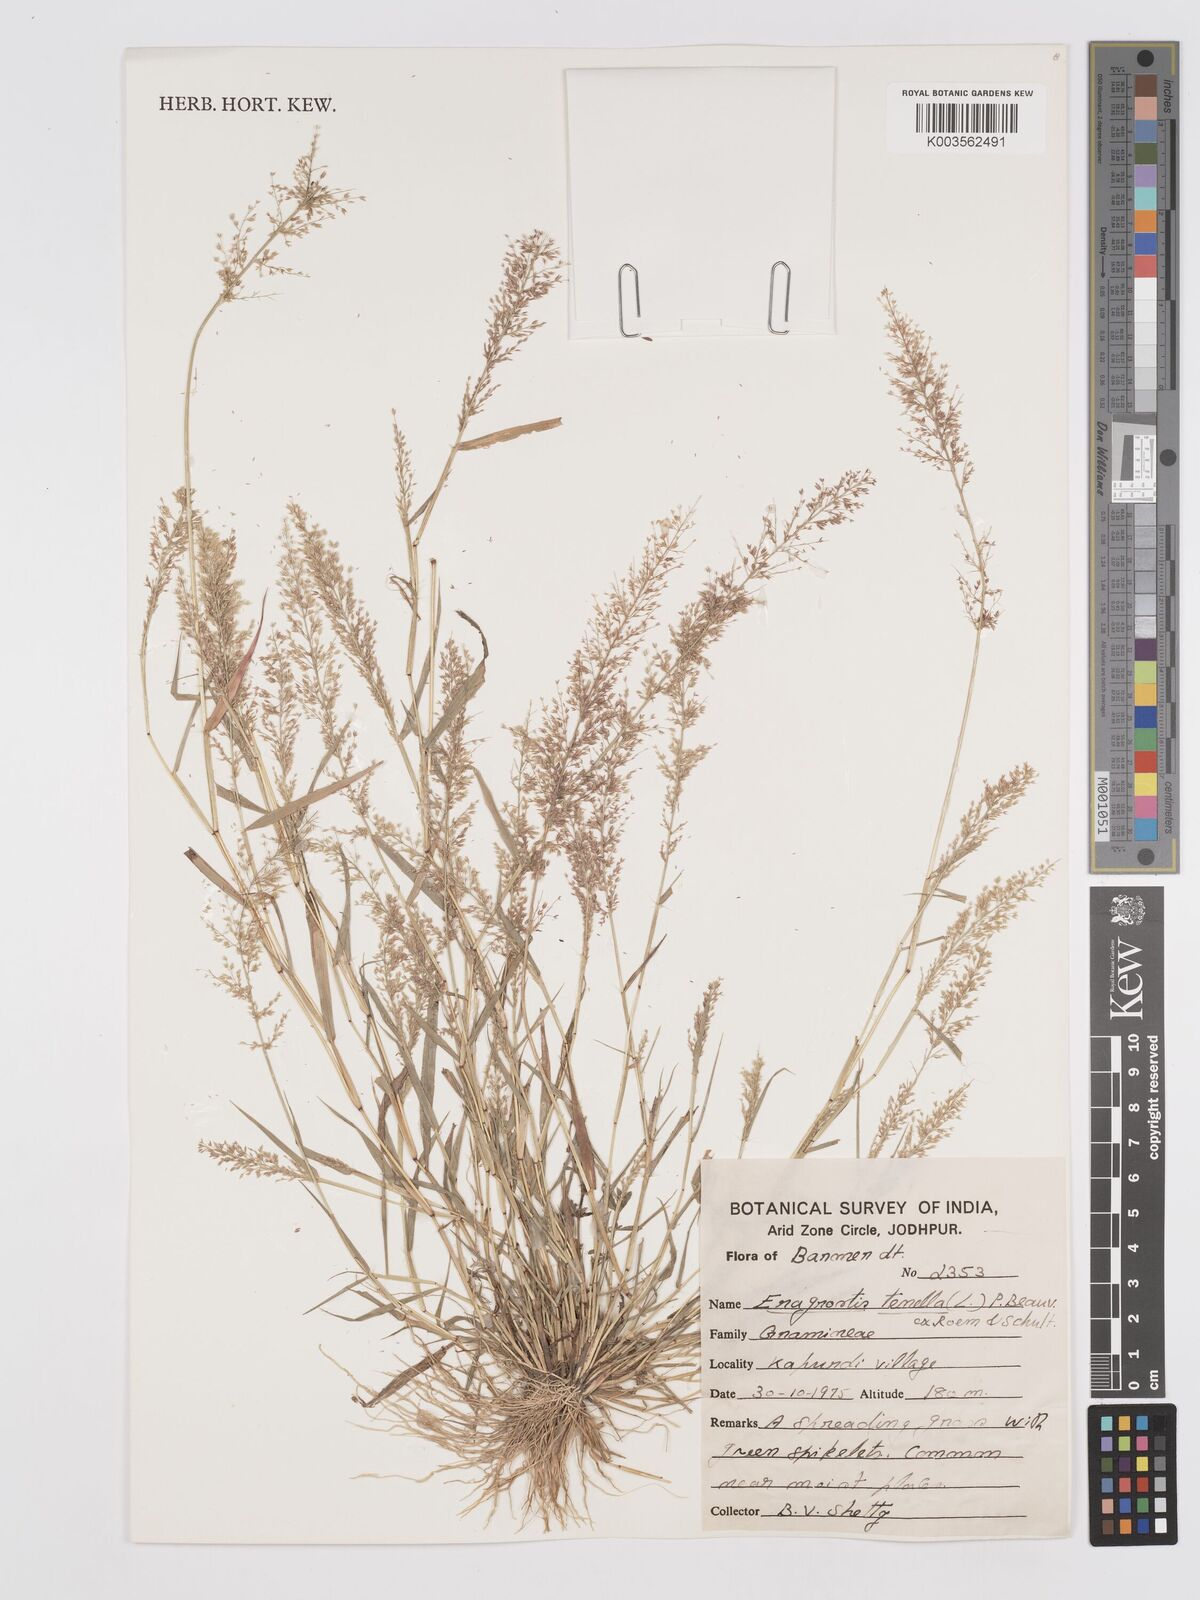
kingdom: Plantae
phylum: Tracheophyta
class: Liliopsida
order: Poales
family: Poaceae
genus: Eragrostis
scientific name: Eragrostis tenella
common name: Japanese lovegrass
